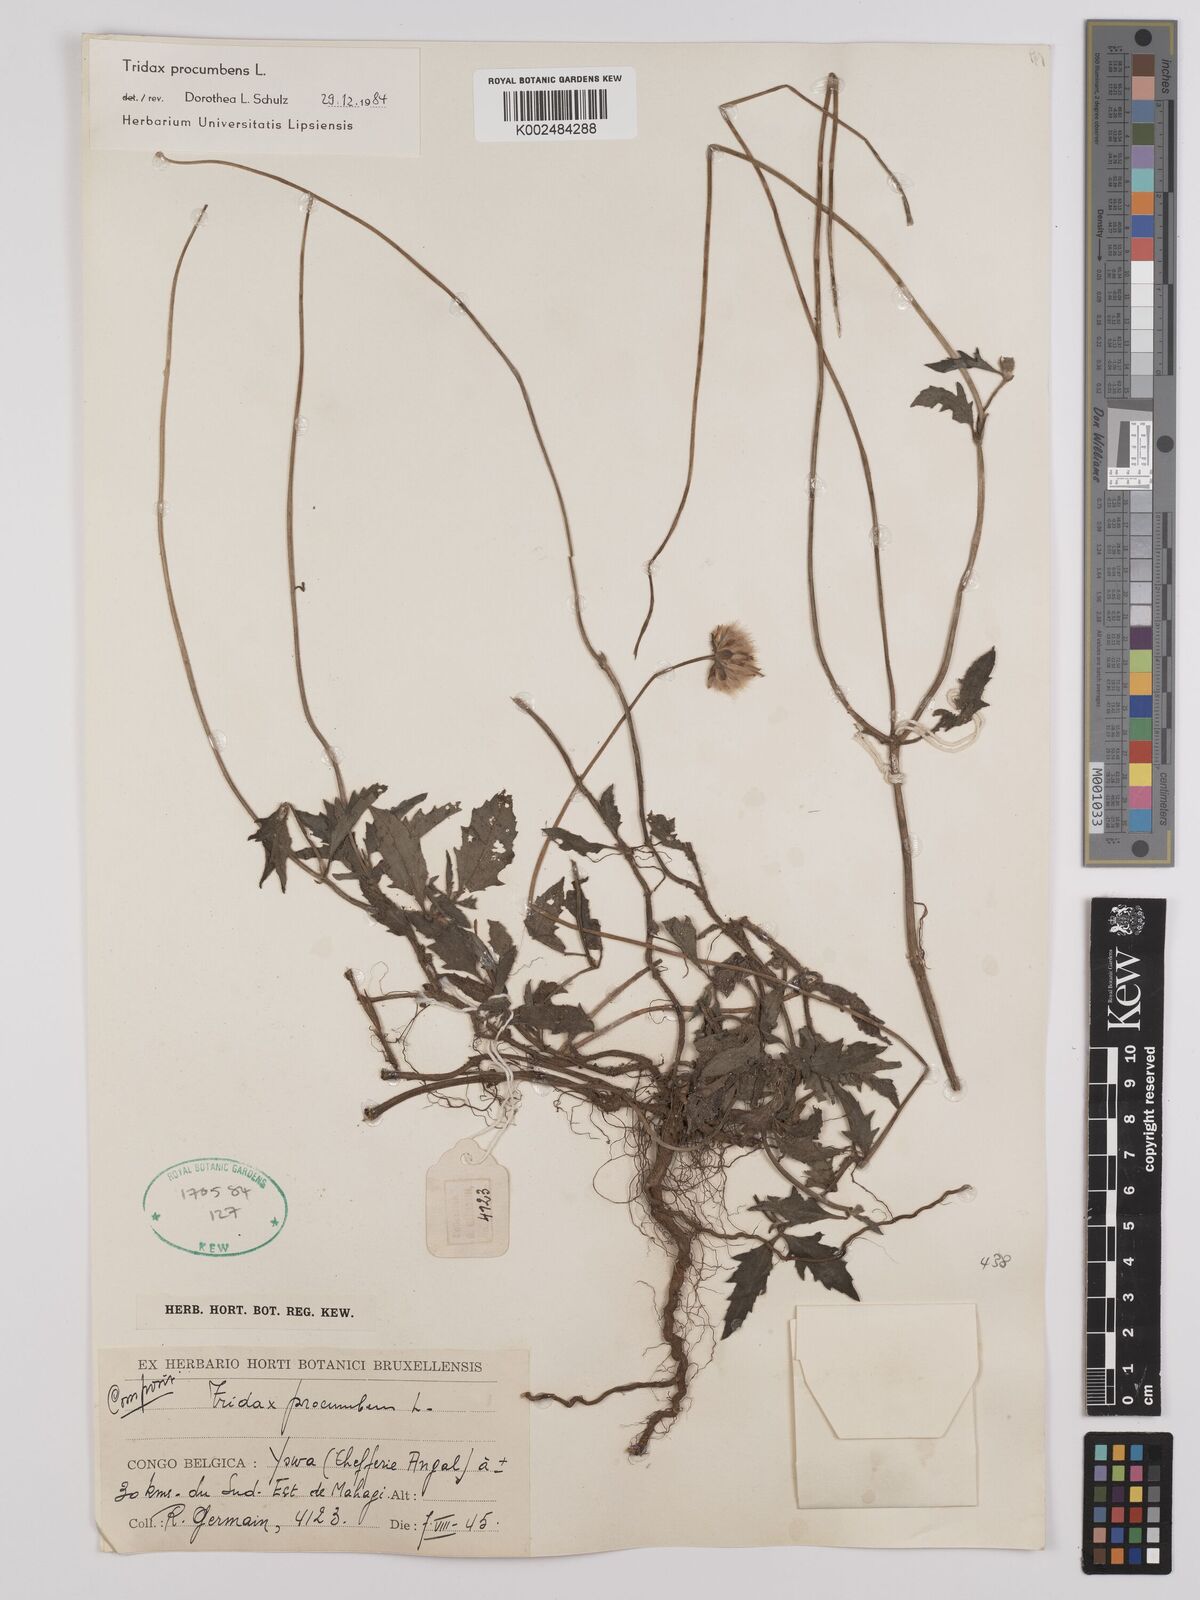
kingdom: Plantae
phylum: Tracheophyta
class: Magnoliopsida
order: Asterales
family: Asteraceae
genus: Tridax
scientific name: Tridax procumbens
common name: Coatbuttons
